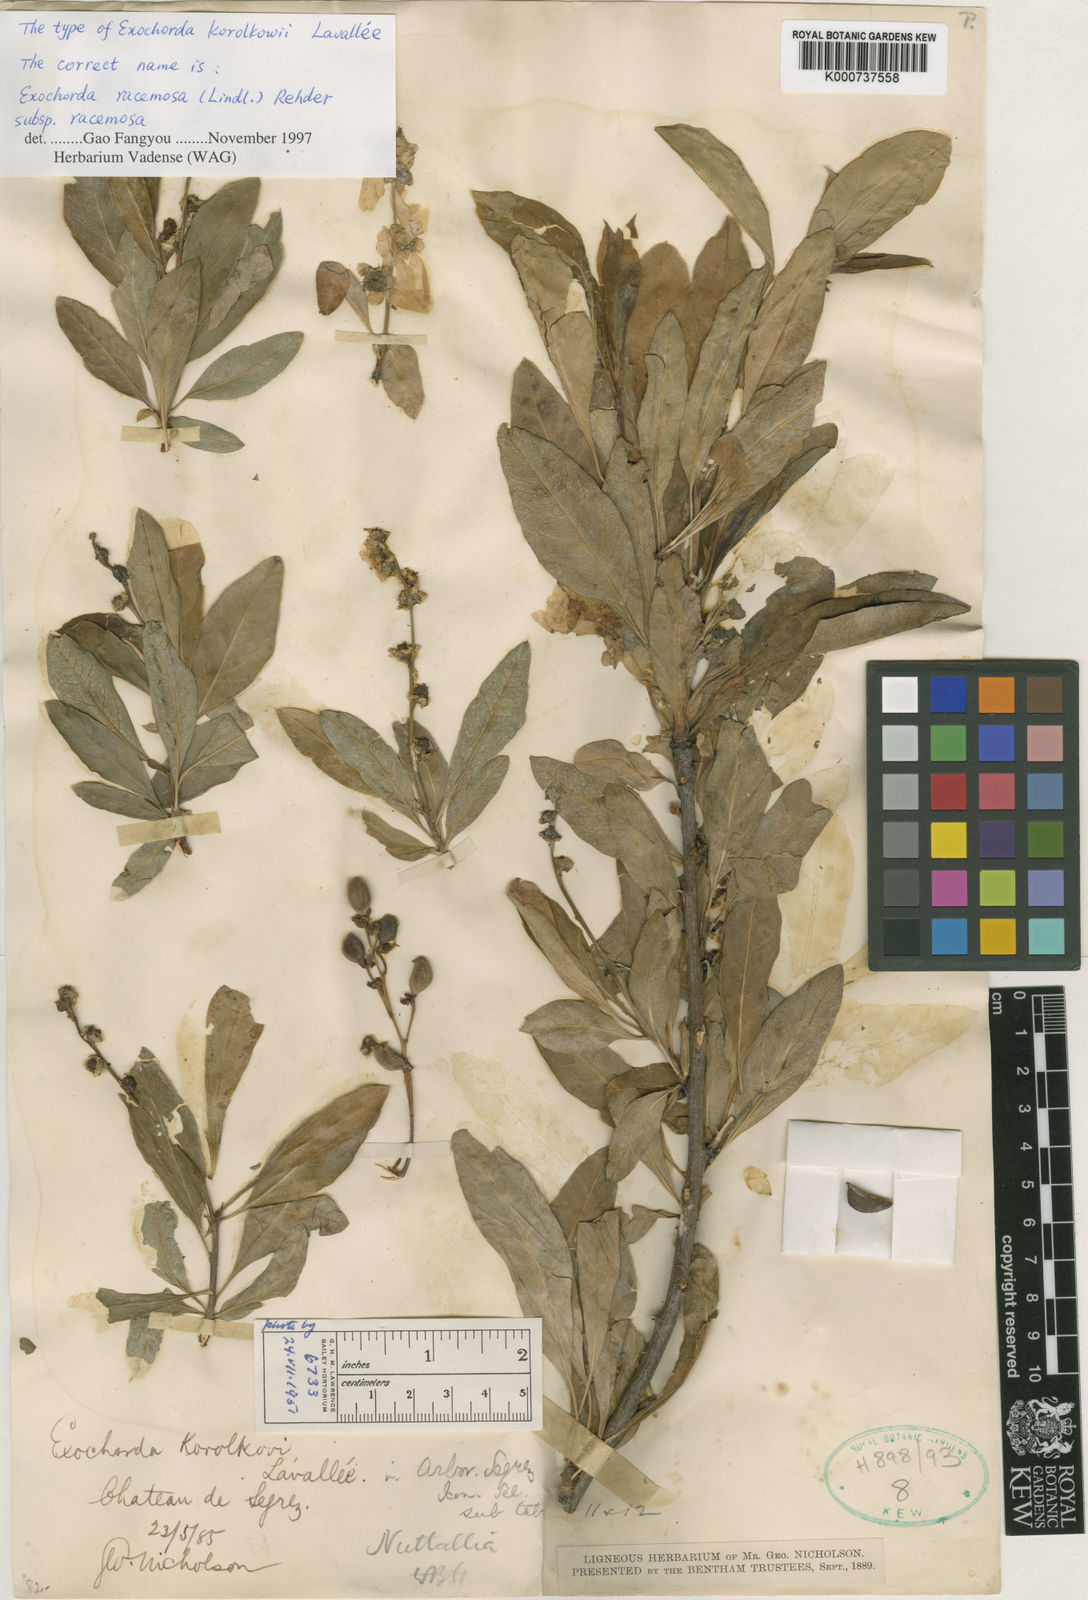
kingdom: Plantae
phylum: Tracheophyta
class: Magnoliopsida
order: Rosales
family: Rosaceae
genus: Exochorda
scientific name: Exochorda racemosa
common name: Common pearlbrush
